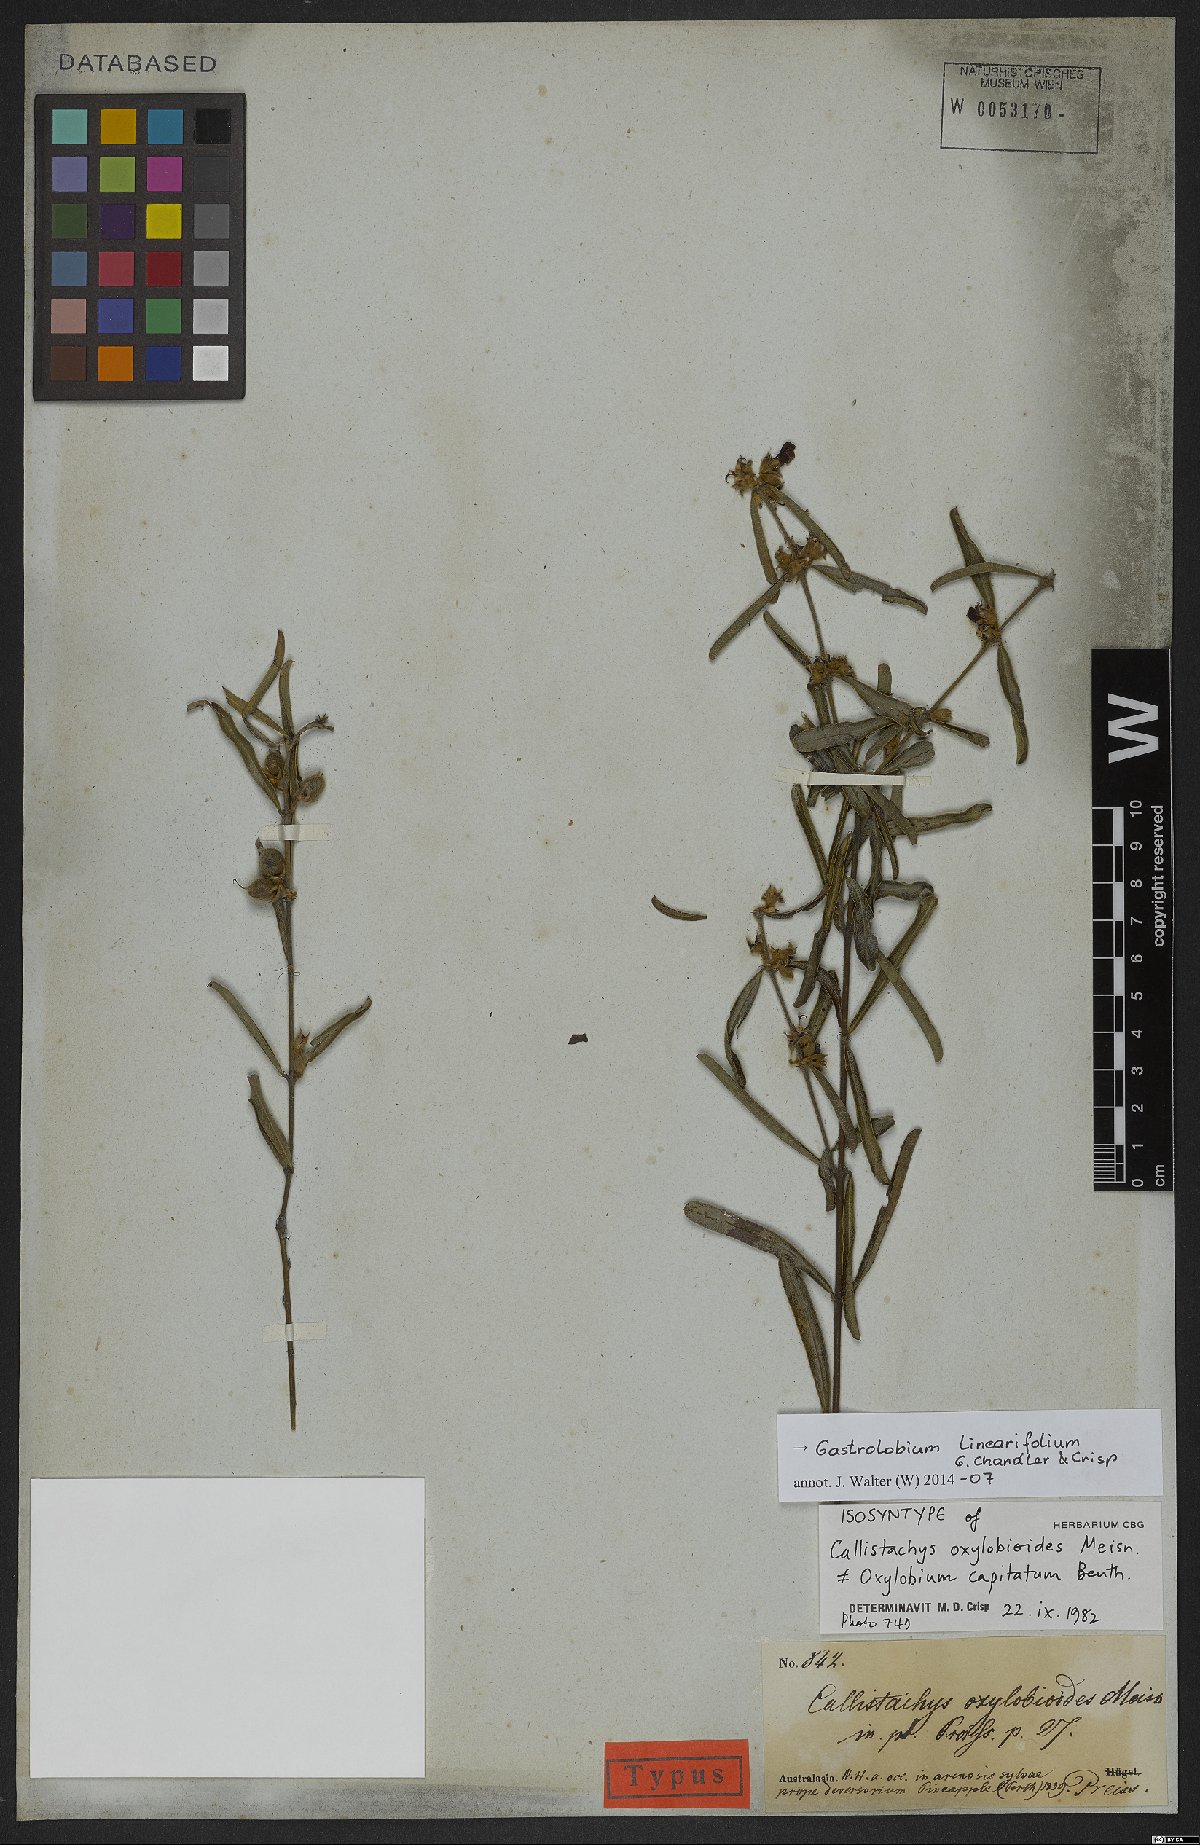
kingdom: Plantae
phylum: Tracheophyta
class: Magnoliopsida
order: Fabales
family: Fabaceae
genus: Gastrolobium
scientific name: Gastrolobium linearifolium
